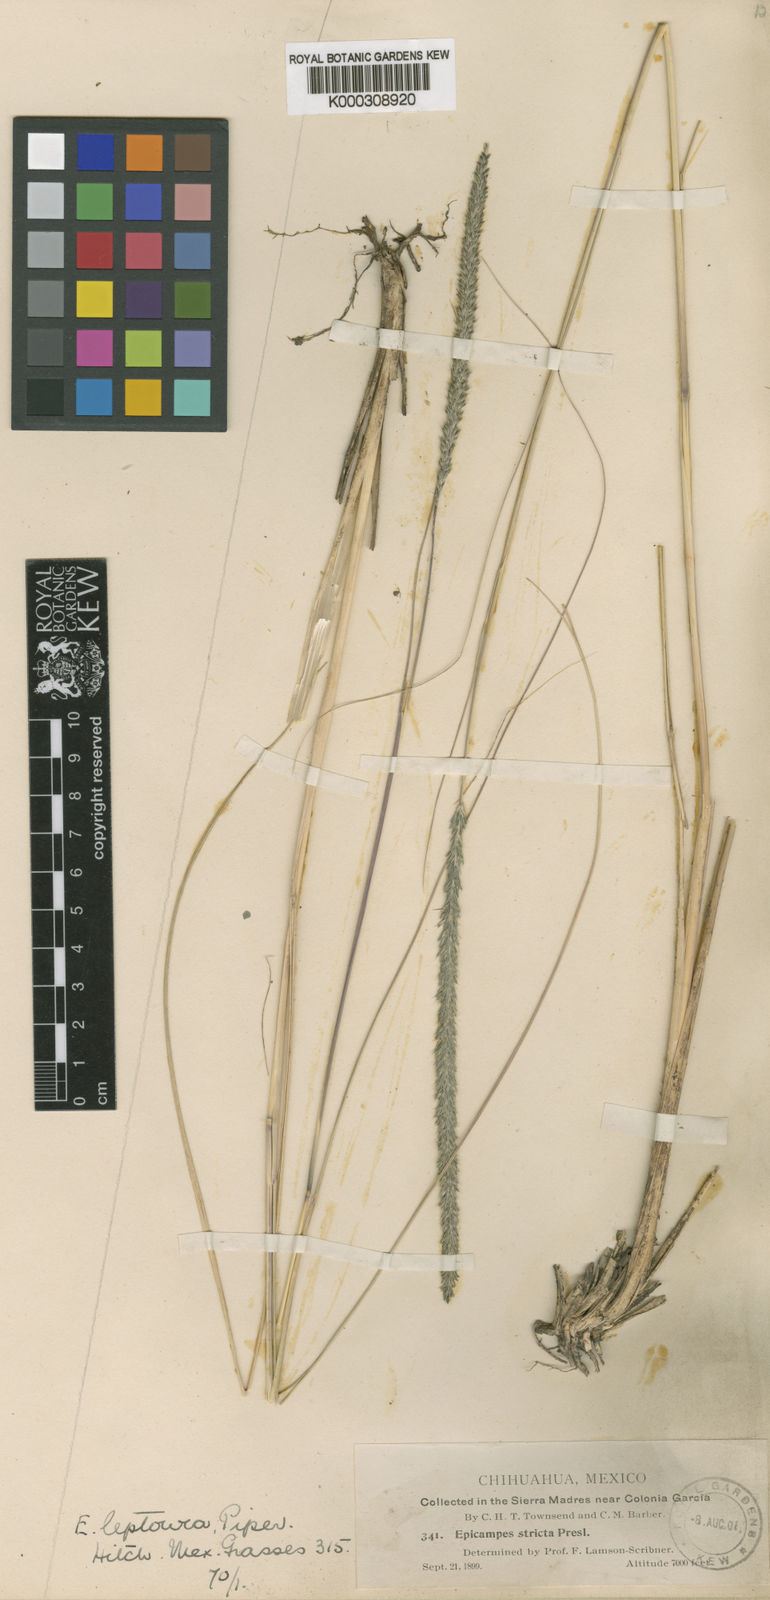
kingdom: Plantae
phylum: Tracheophyta
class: Liliopsida
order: Poales
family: Poaceae
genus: Muhlenbergia
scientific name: Muhlenbergia rigens
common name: Deer grass
